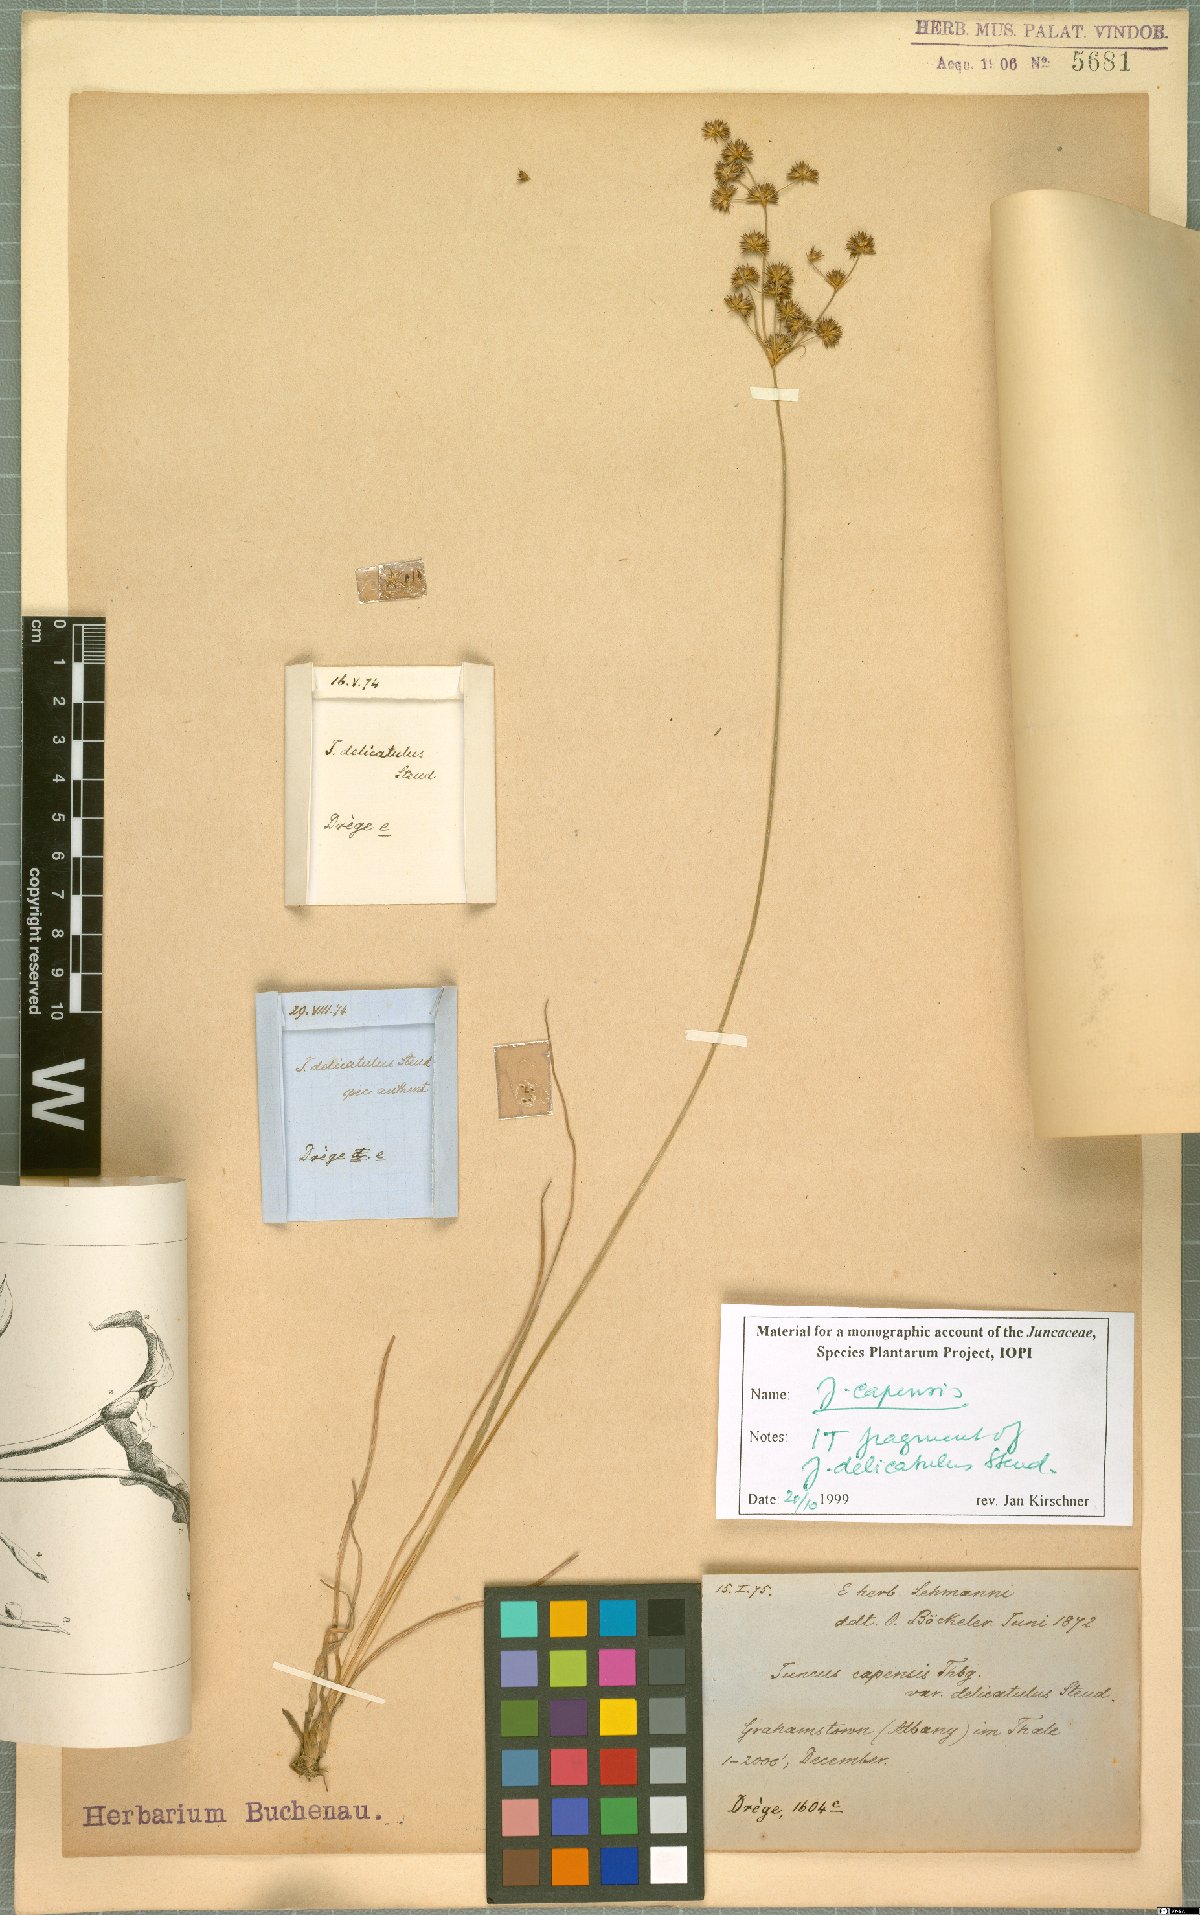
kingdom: Plantae
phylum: Tracheophyta
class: Liliopsida
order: Poales
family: Juncaceae
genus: Juncus
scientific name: Juncus capensis
